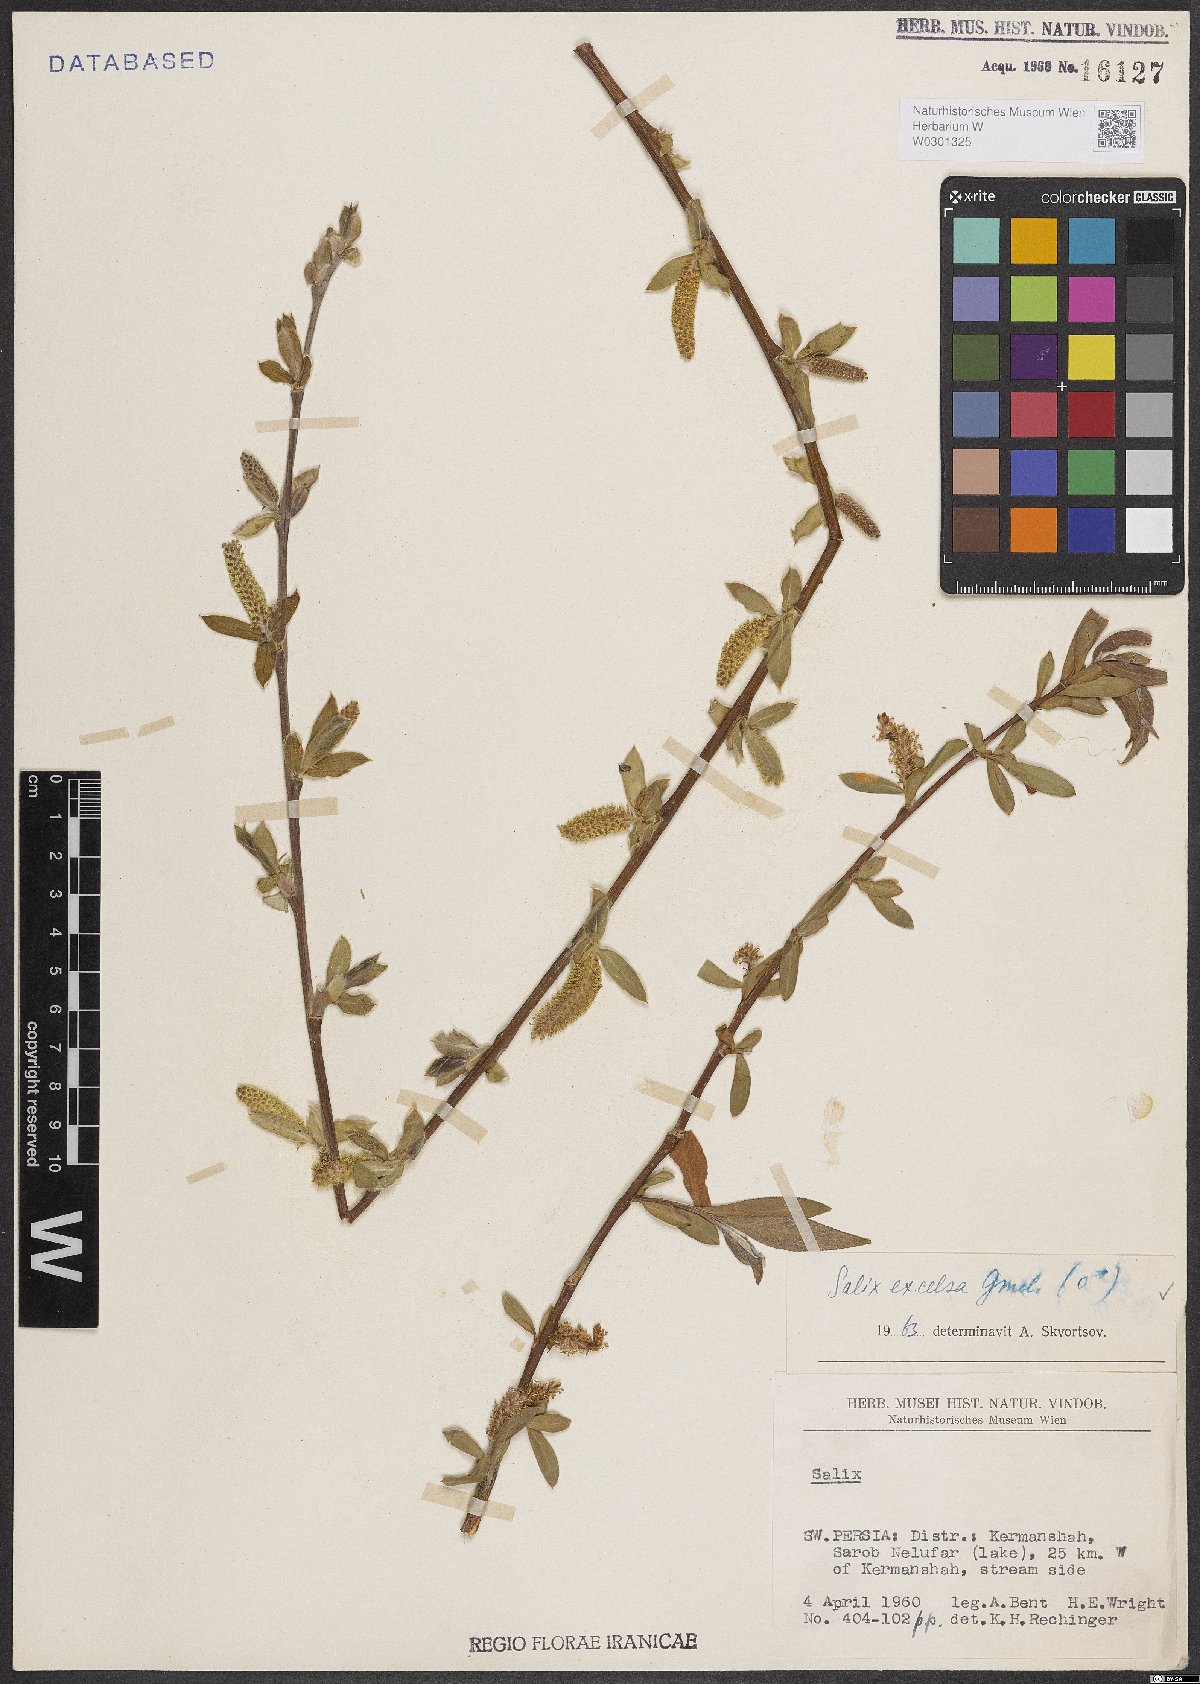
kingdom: Plantae
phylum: Tracheophyta
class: Magnoliopsida
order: Malpighiales
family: Salicaceae
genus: Salix
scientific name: Salix excelsa
